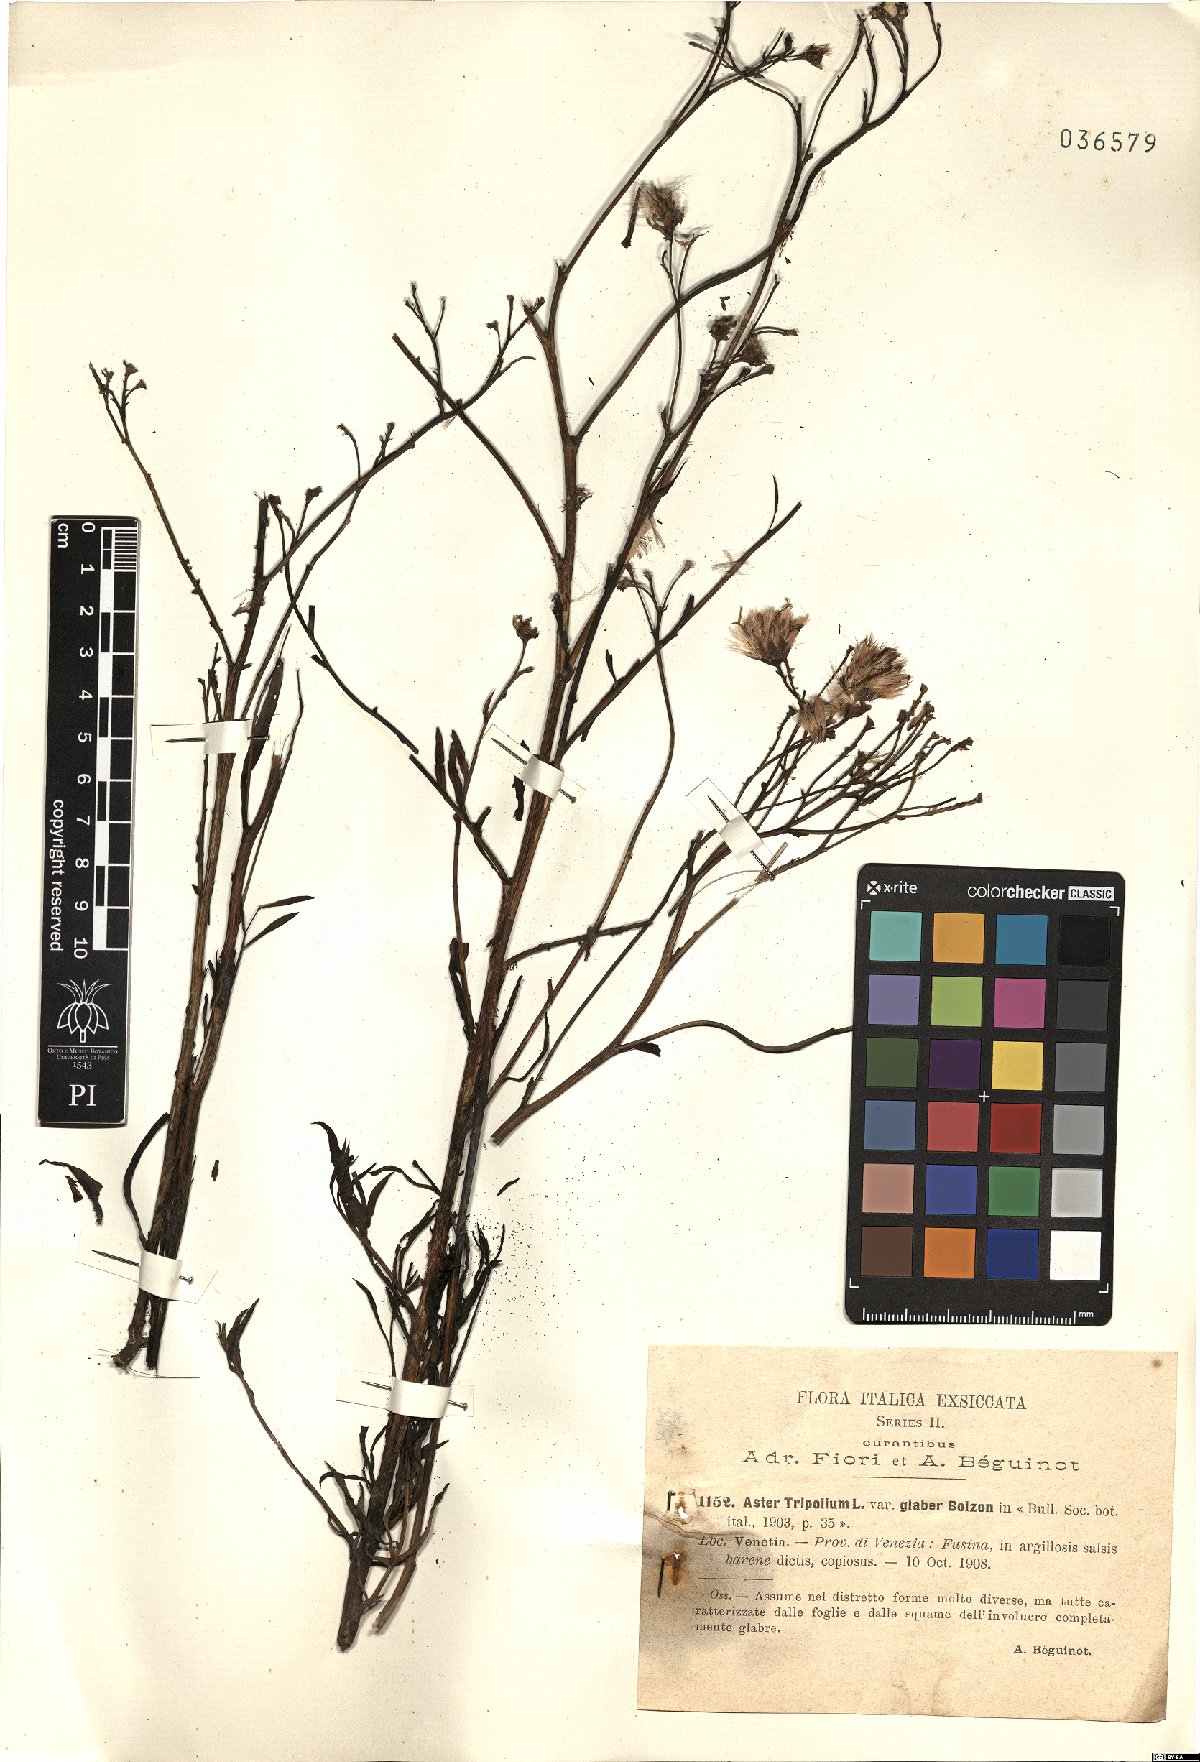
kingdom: Plantae
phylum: Tracheophyta
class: Magnoliopsida
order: Asterales
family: Asteraceae
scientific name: Asteraceae
